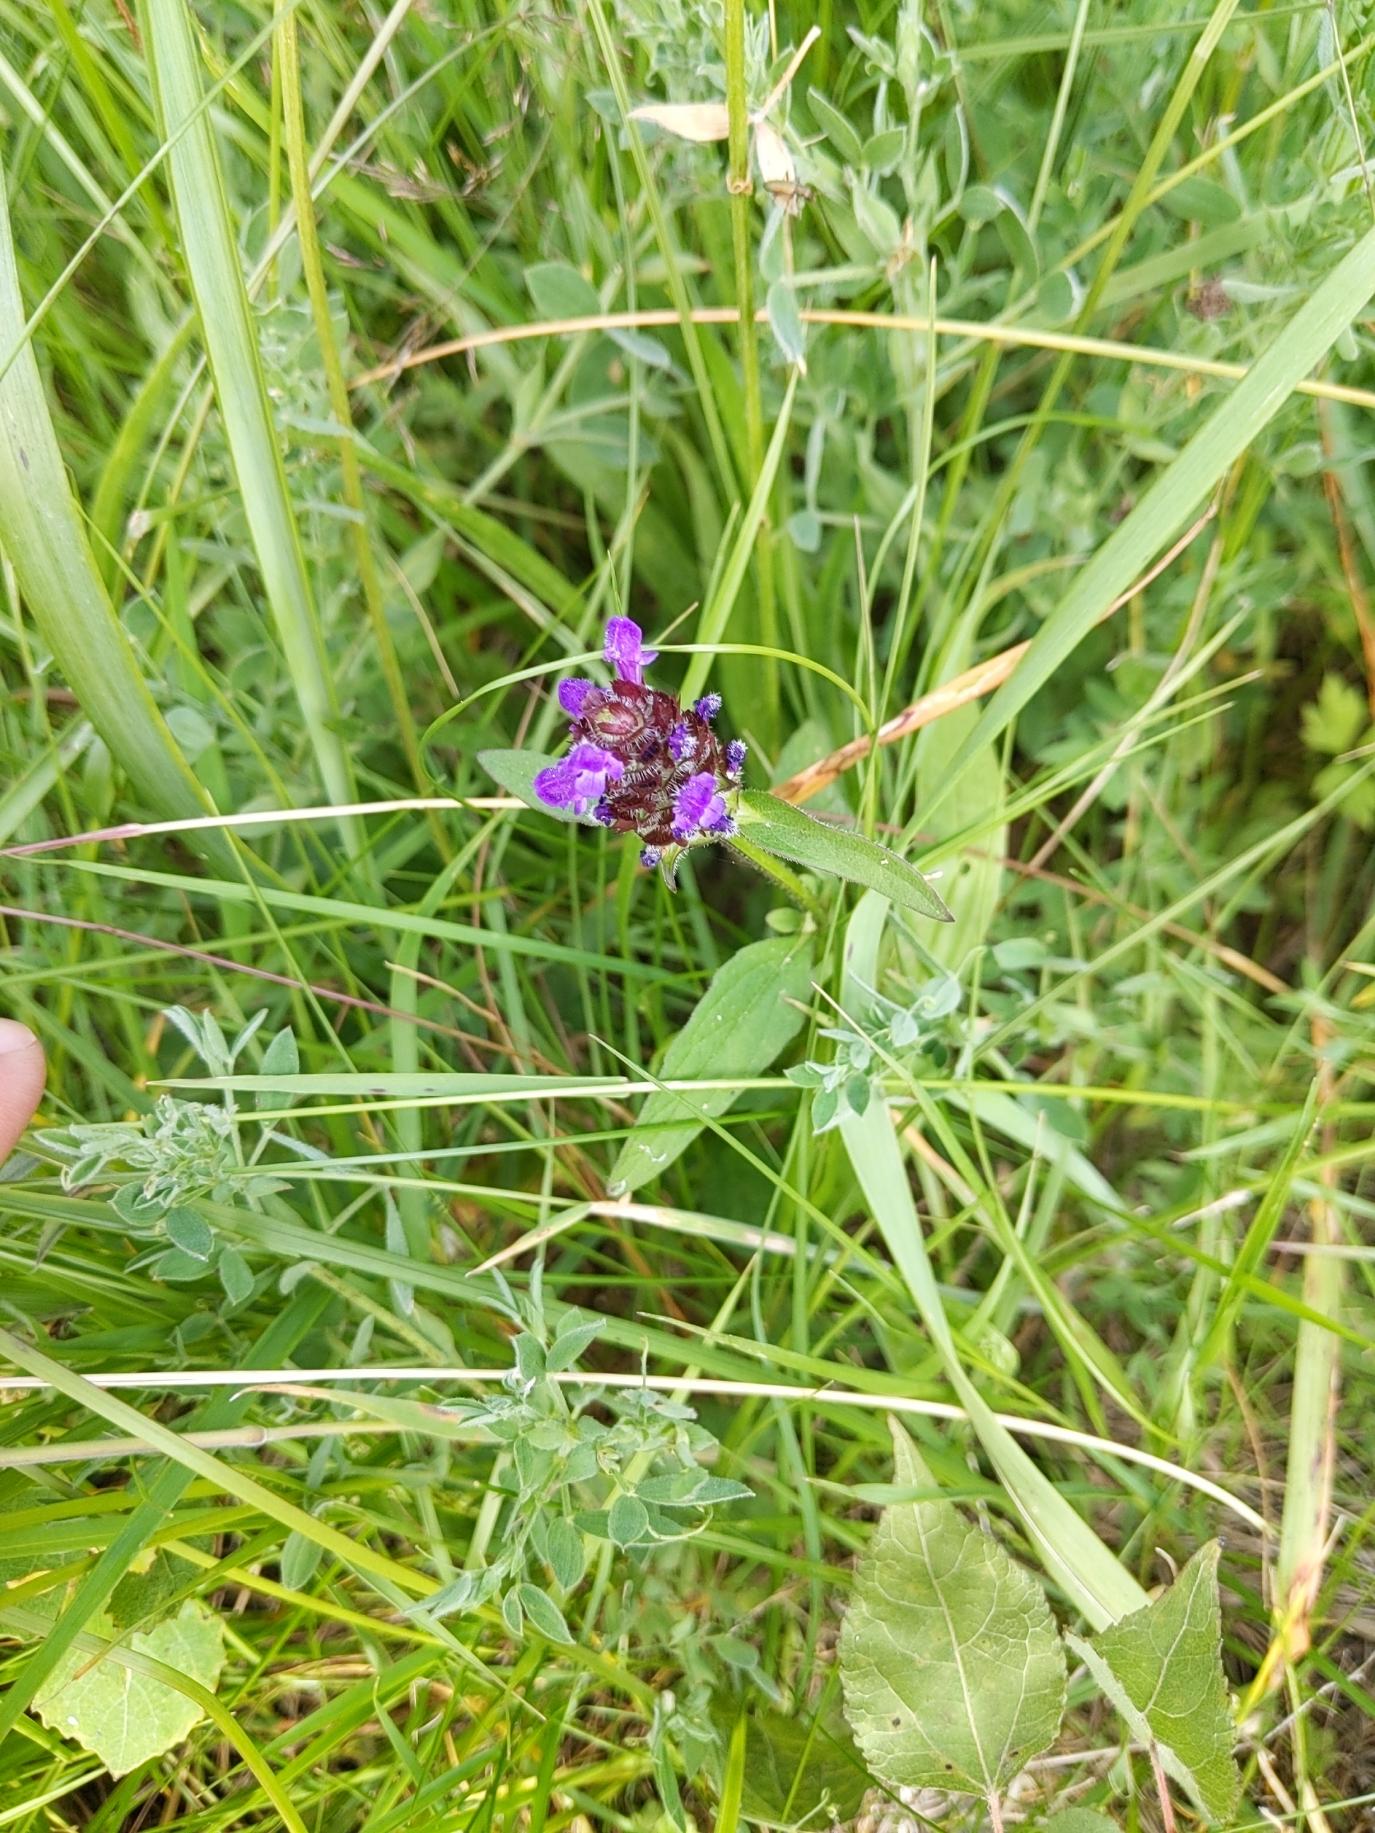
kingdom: Plantae
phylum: Tracheophyta
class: Magnoliopsida
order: Lamiales
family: Lamiaceae
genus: Prunella
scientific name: Prunella vulgaris
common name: Almindelig brunelle
